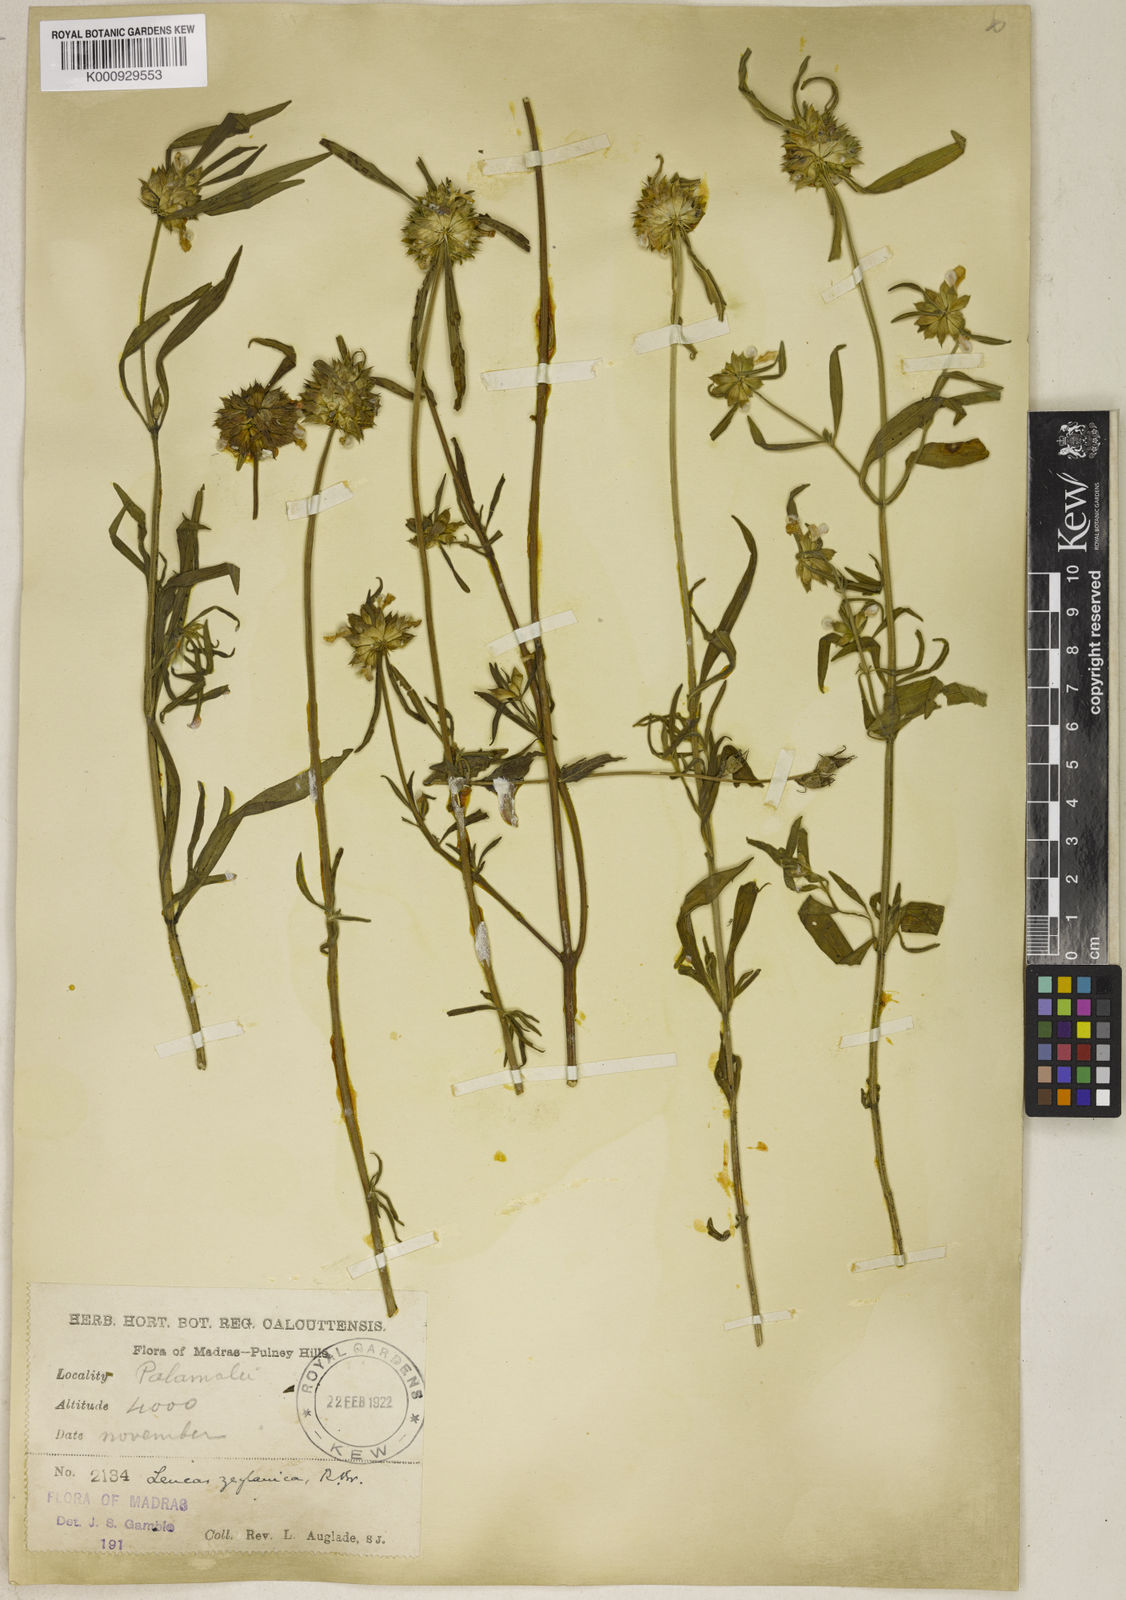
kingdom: Plantae
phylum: Tracheophyta
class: Magnoliopsida
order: Lamiales
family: Lamiaceae
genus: Leucas
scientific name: Leucas zeylanica
